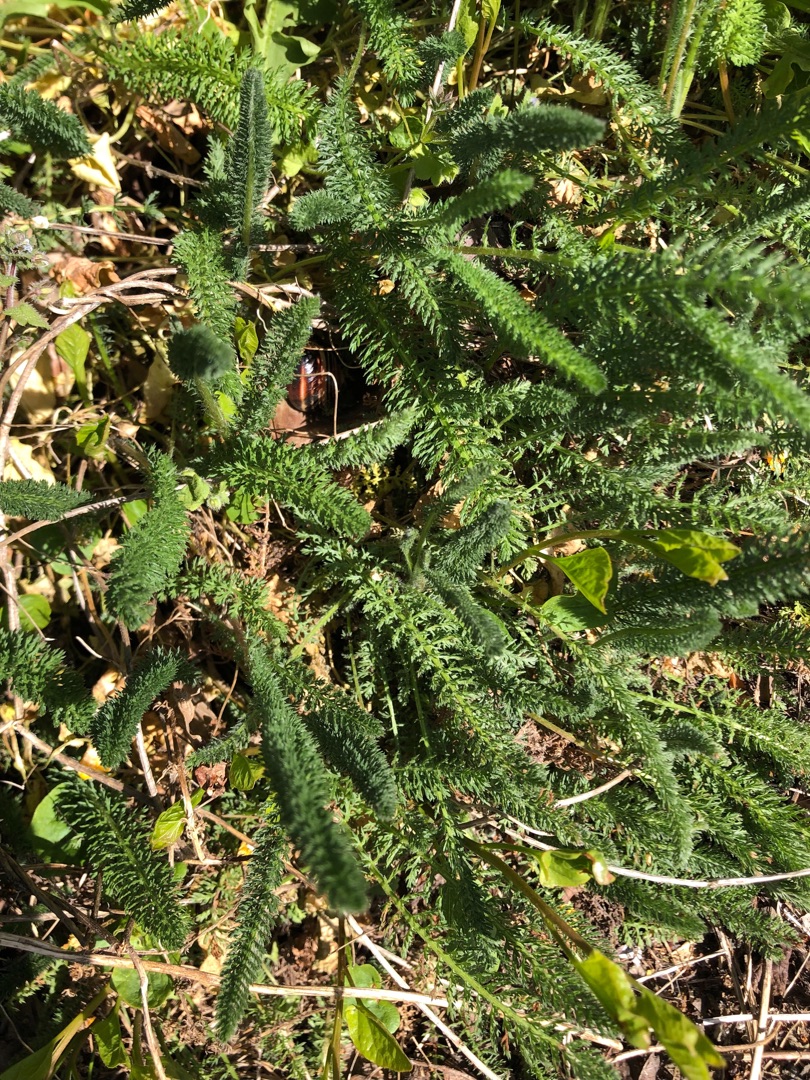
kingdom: Plantae
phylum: Tracheophyta
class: Magnoliopsida
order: Asterales
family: Asteraceae
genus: Achillea
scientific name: Achillea millefolium
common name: Almindelig røllike
